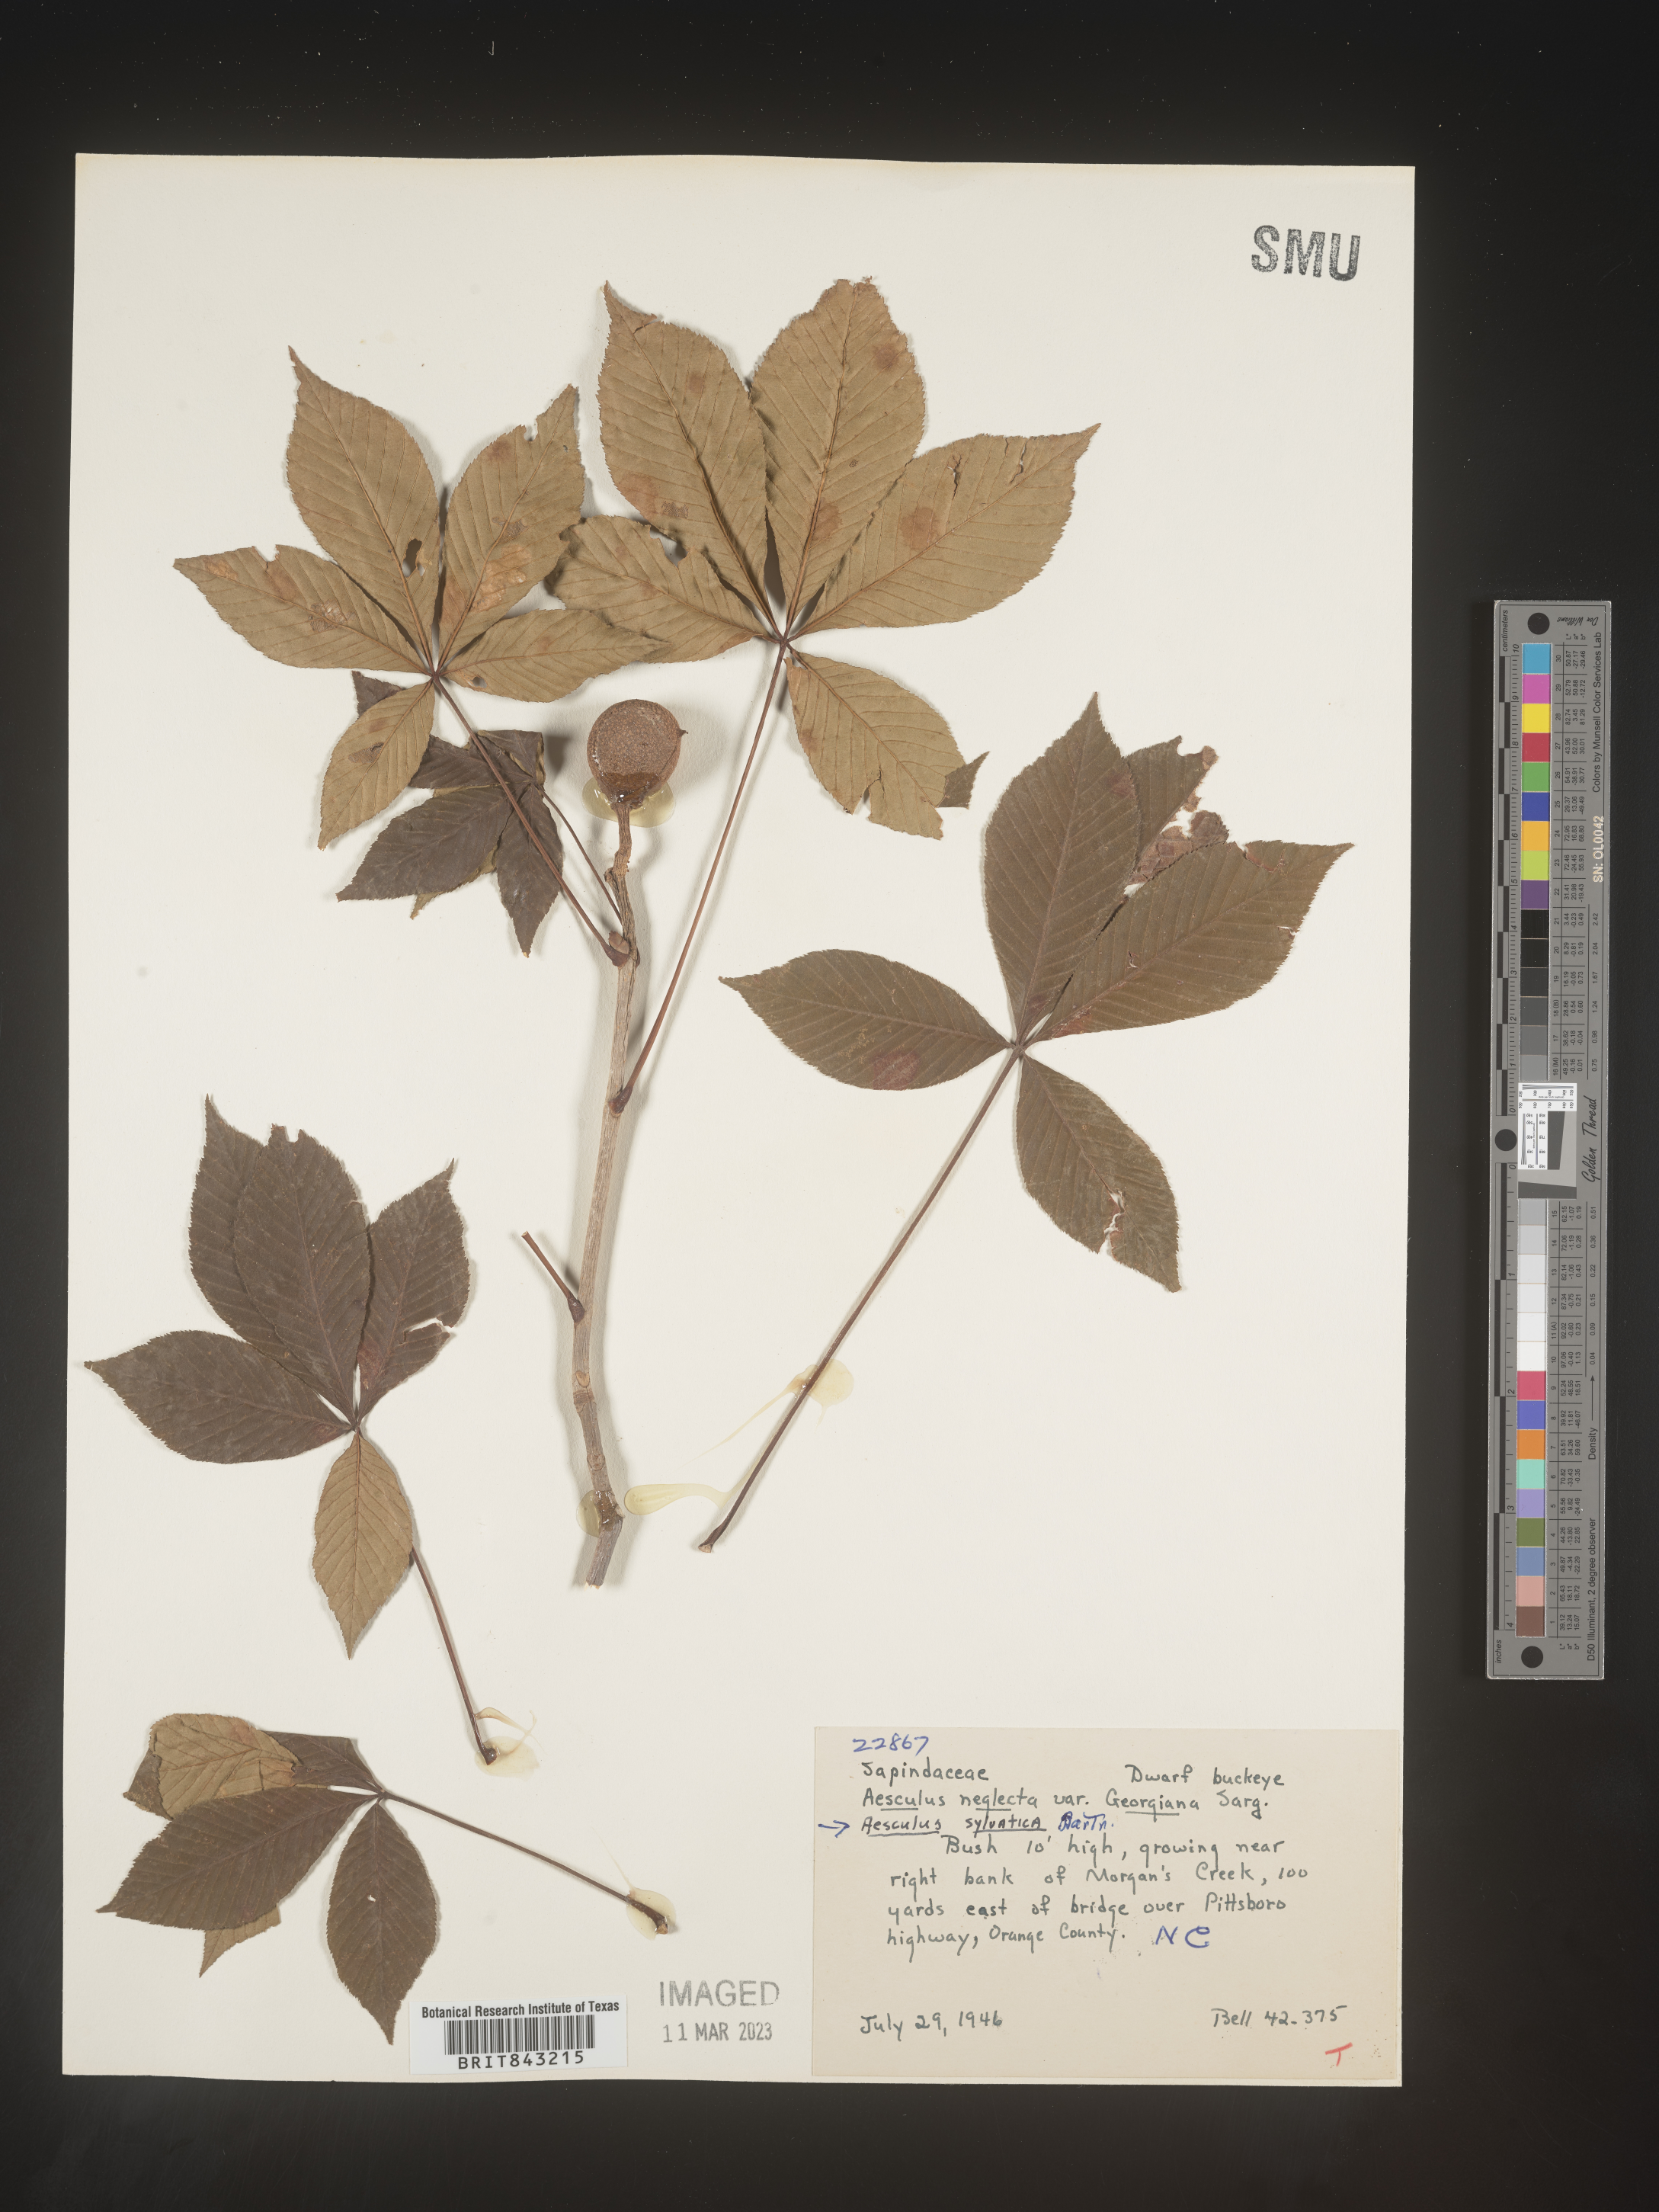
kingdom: Plantae
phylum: Tracheophyta
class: Magnoliopsida
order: Sapindales
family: Sapindaceae
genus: Aesculus
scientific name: Aesculus
